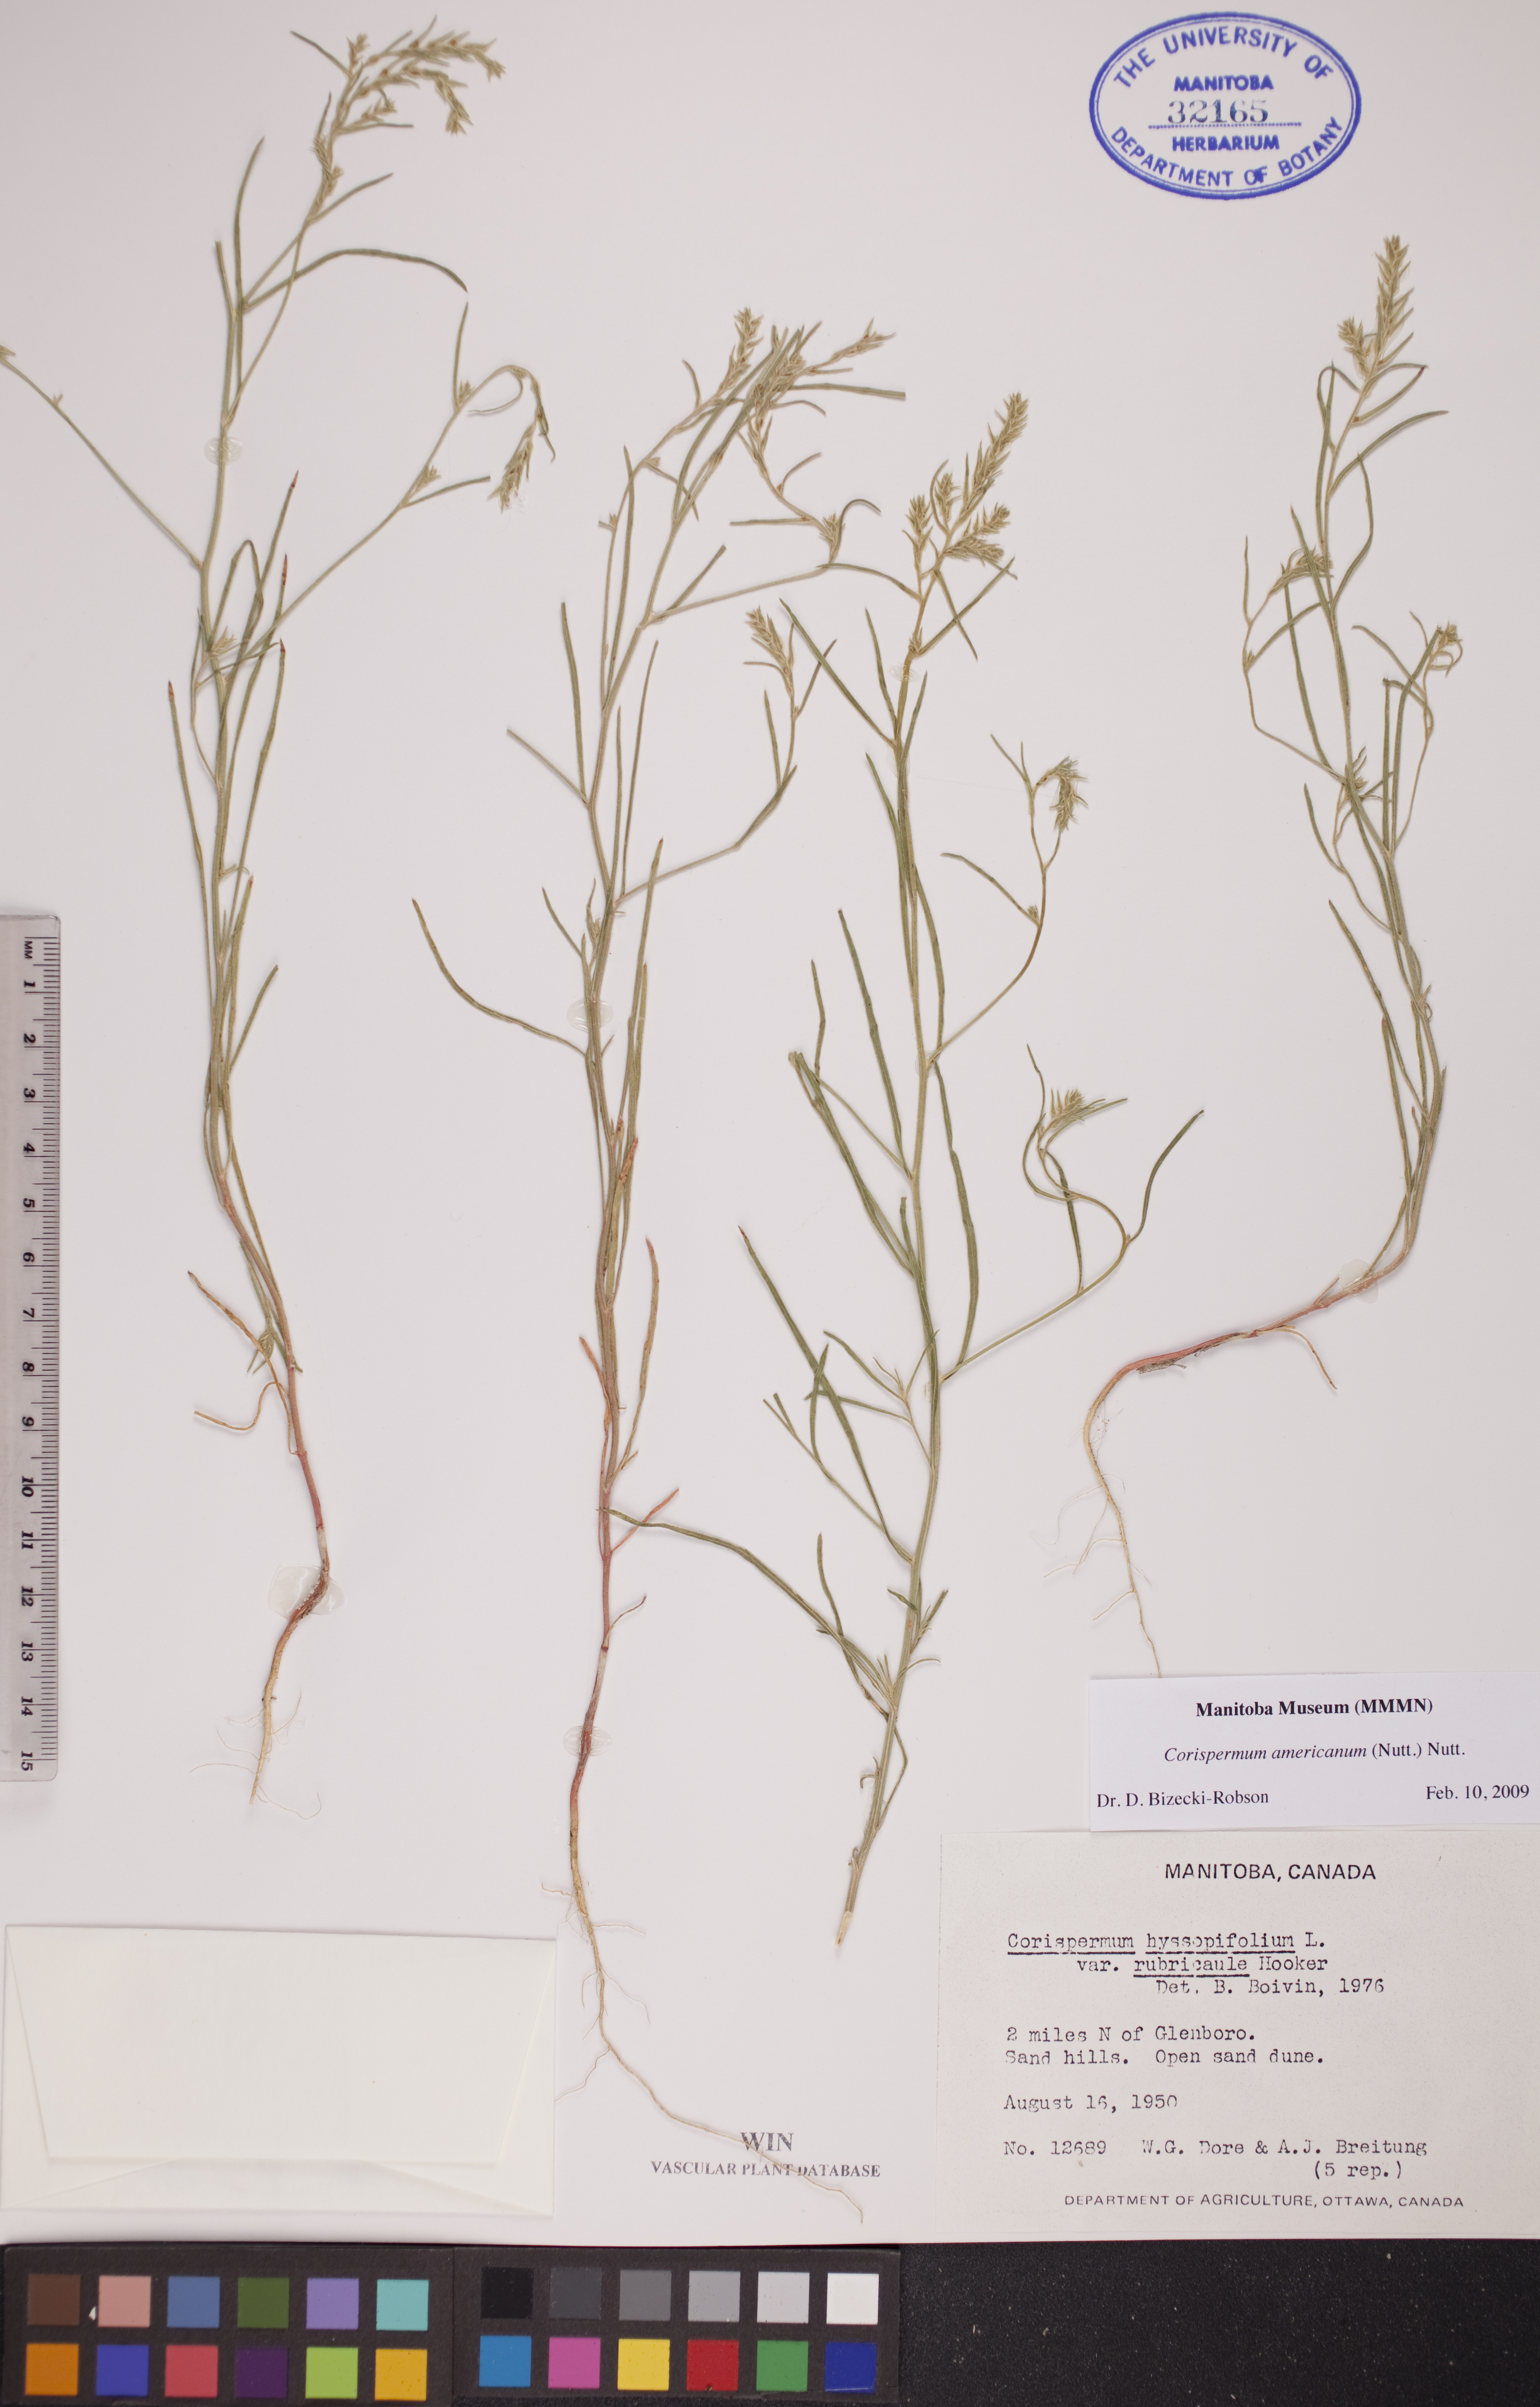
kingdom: Plantae
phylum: Tracheophyta
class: Magnoliopsida
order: Caryophyllales
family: Amaranthaceae
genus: Corispermum
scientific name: Corispermum americanum
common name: American bugseed
